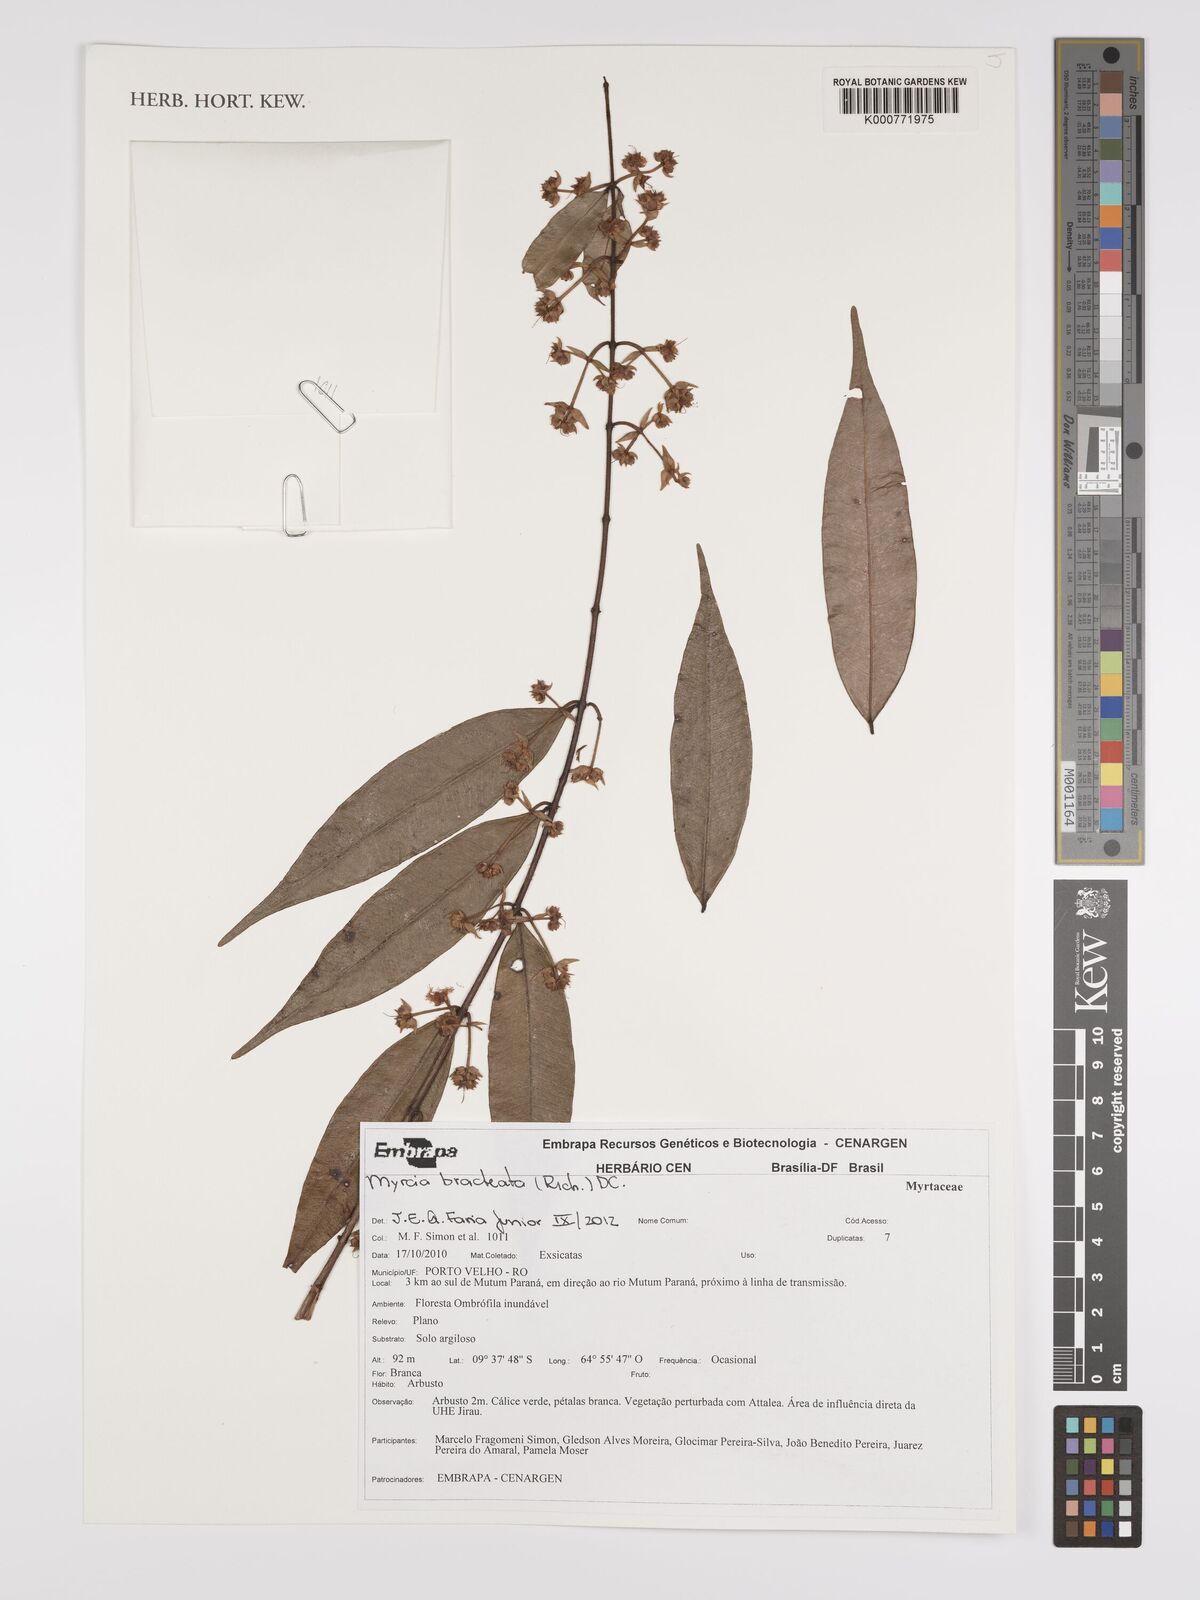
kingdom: Plantae
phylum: Tracheophyta
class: Magnoliopsida
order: Myrtales
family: Myrtaceae
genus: Myrcia
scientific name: Myrcia bracteata
